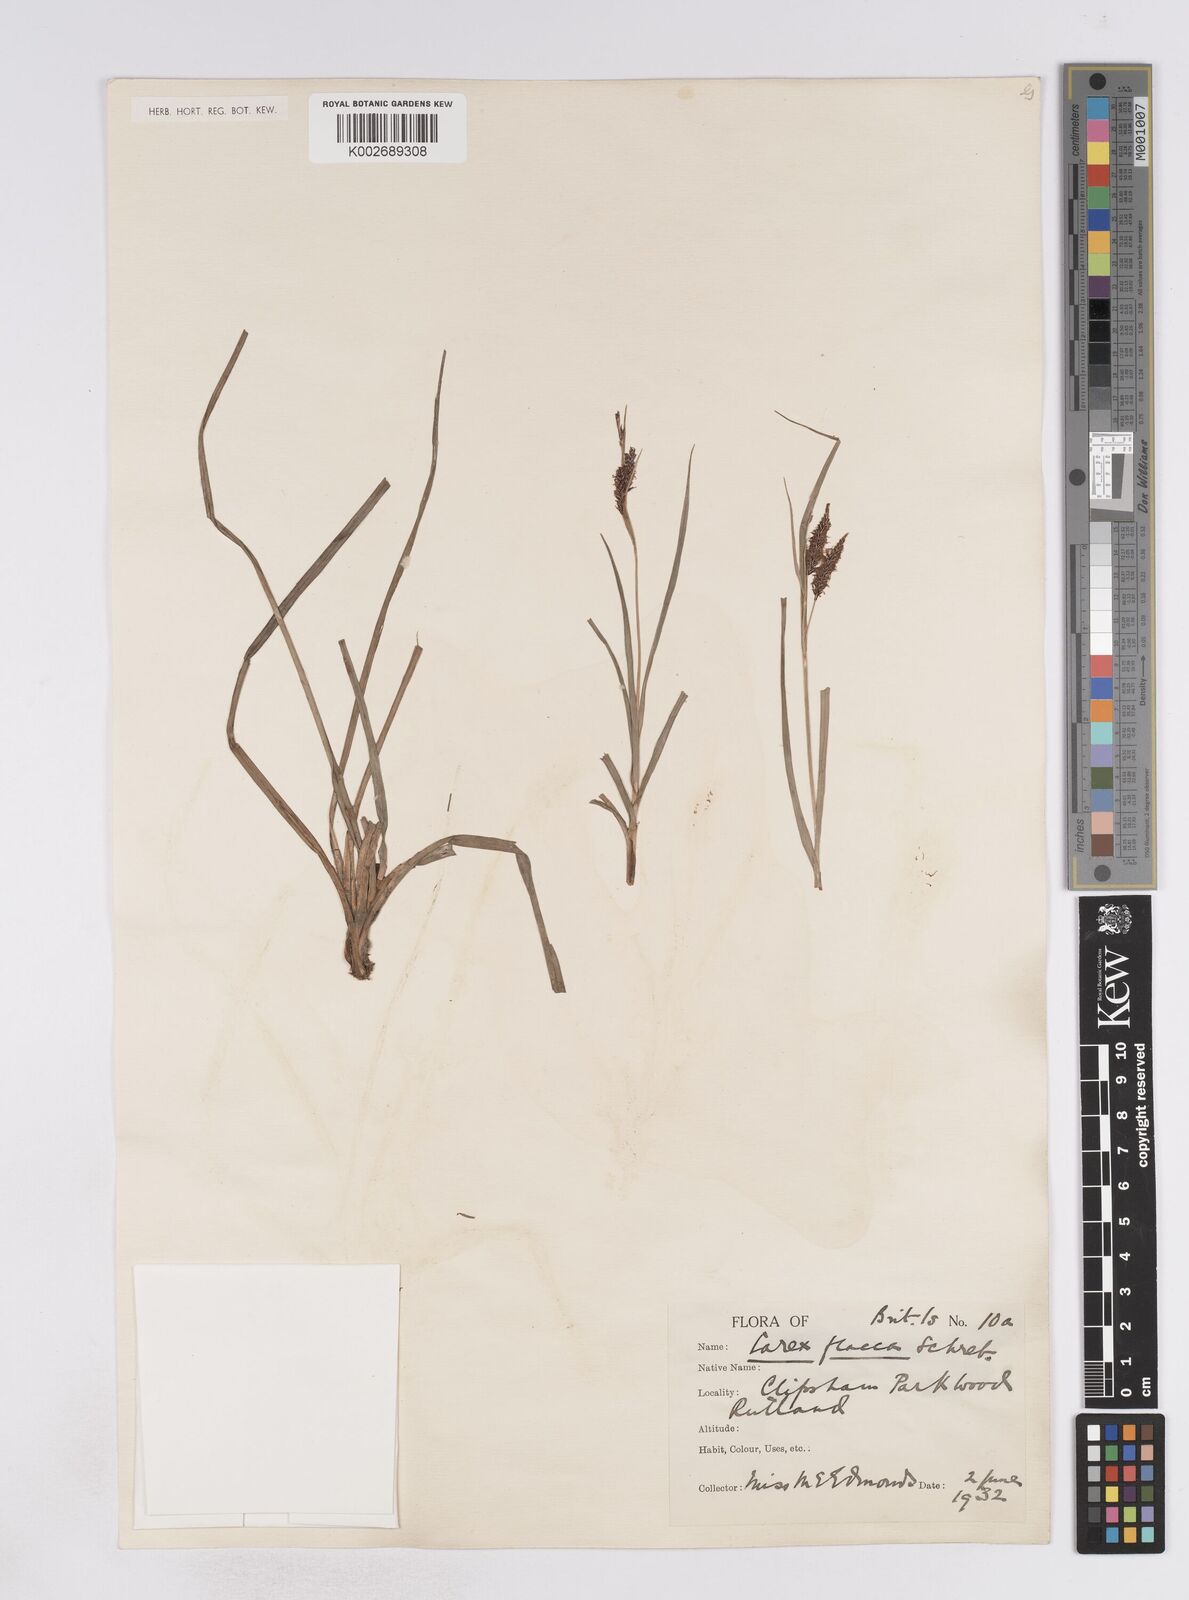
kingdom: Plantae
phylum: Tracheophyta
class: Liliopsida
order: Poales
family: Cyperaceae
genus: Carex
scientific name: Carex flacca
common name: Glaucous sedge
